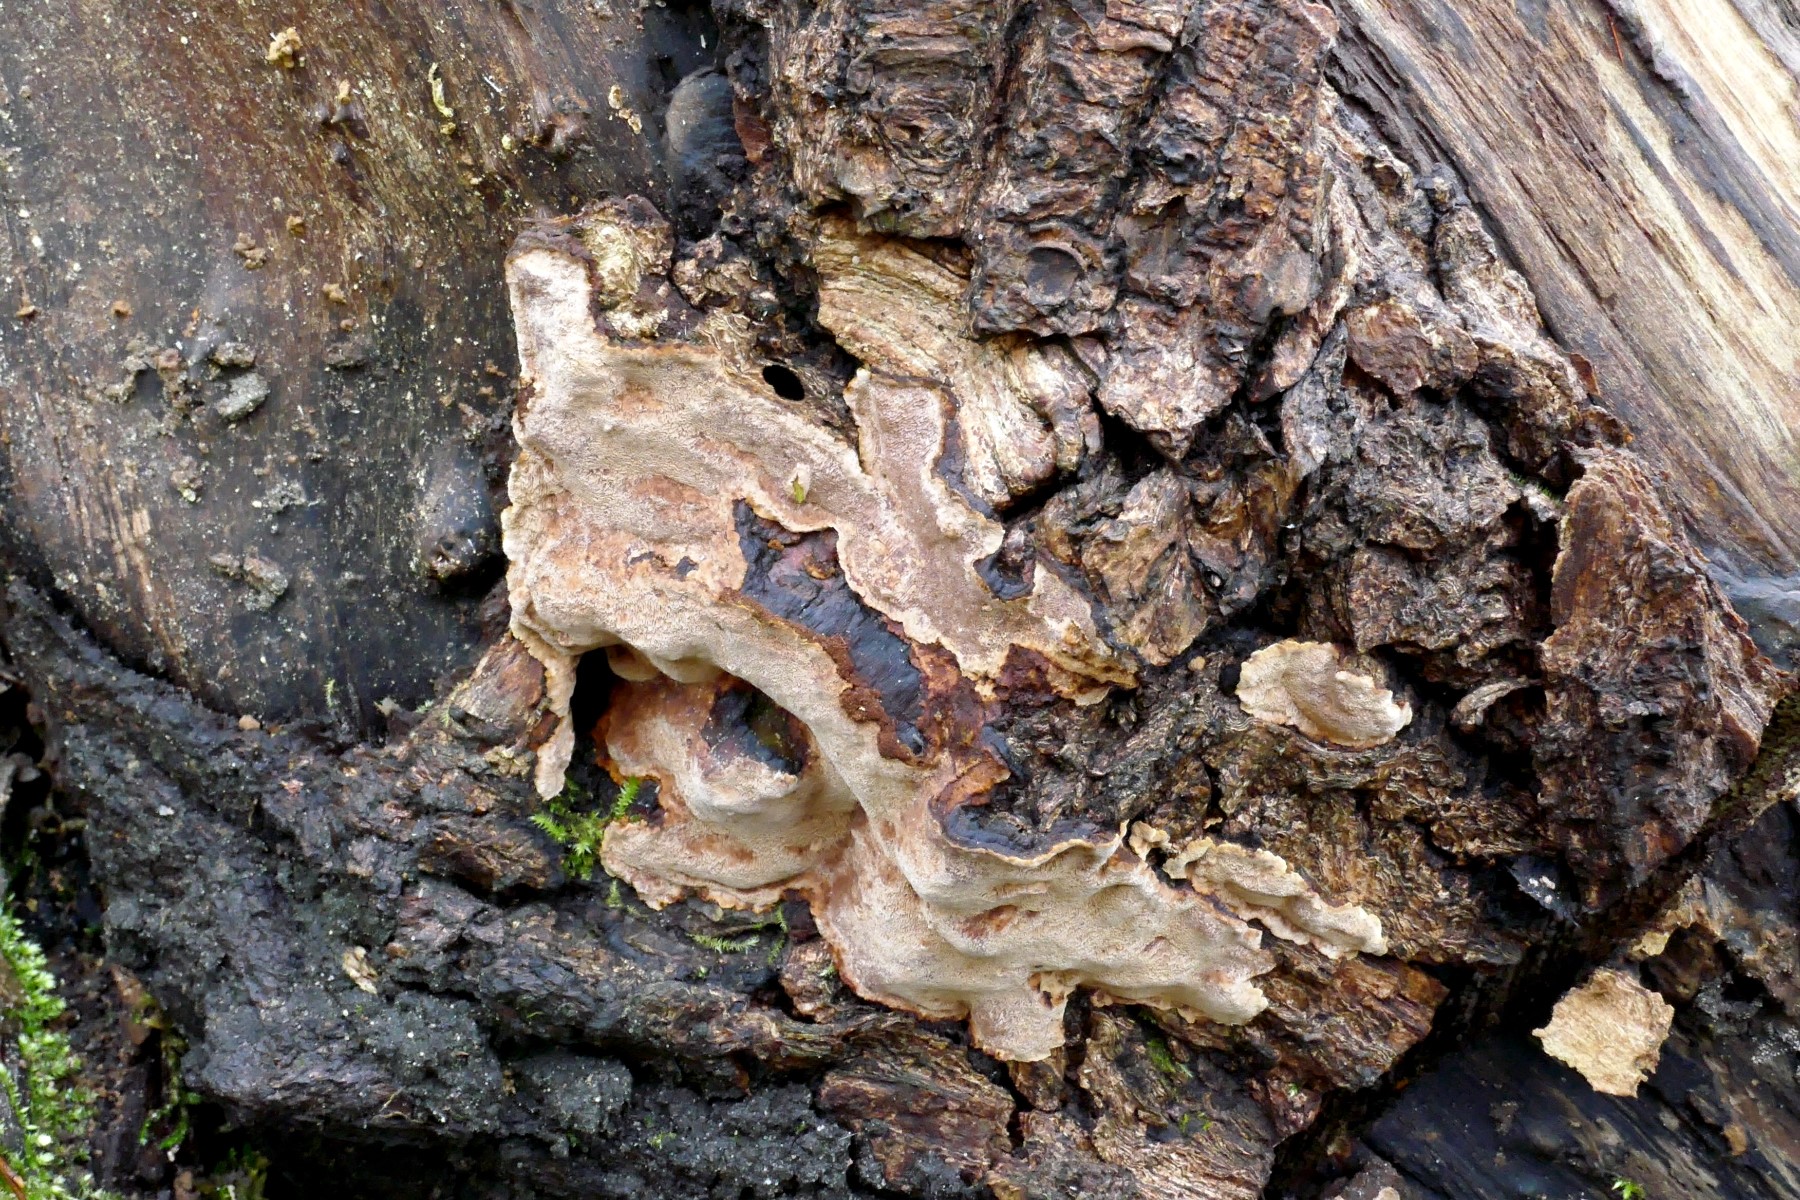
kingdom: Fungi
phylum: Basidiomycota
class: Agaricomycetes
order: Hymenochaetales
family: Hymenochaetaceae
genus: Phellinopsis
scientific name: Phellinopsis conchata
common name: pile-ildporesvamp
